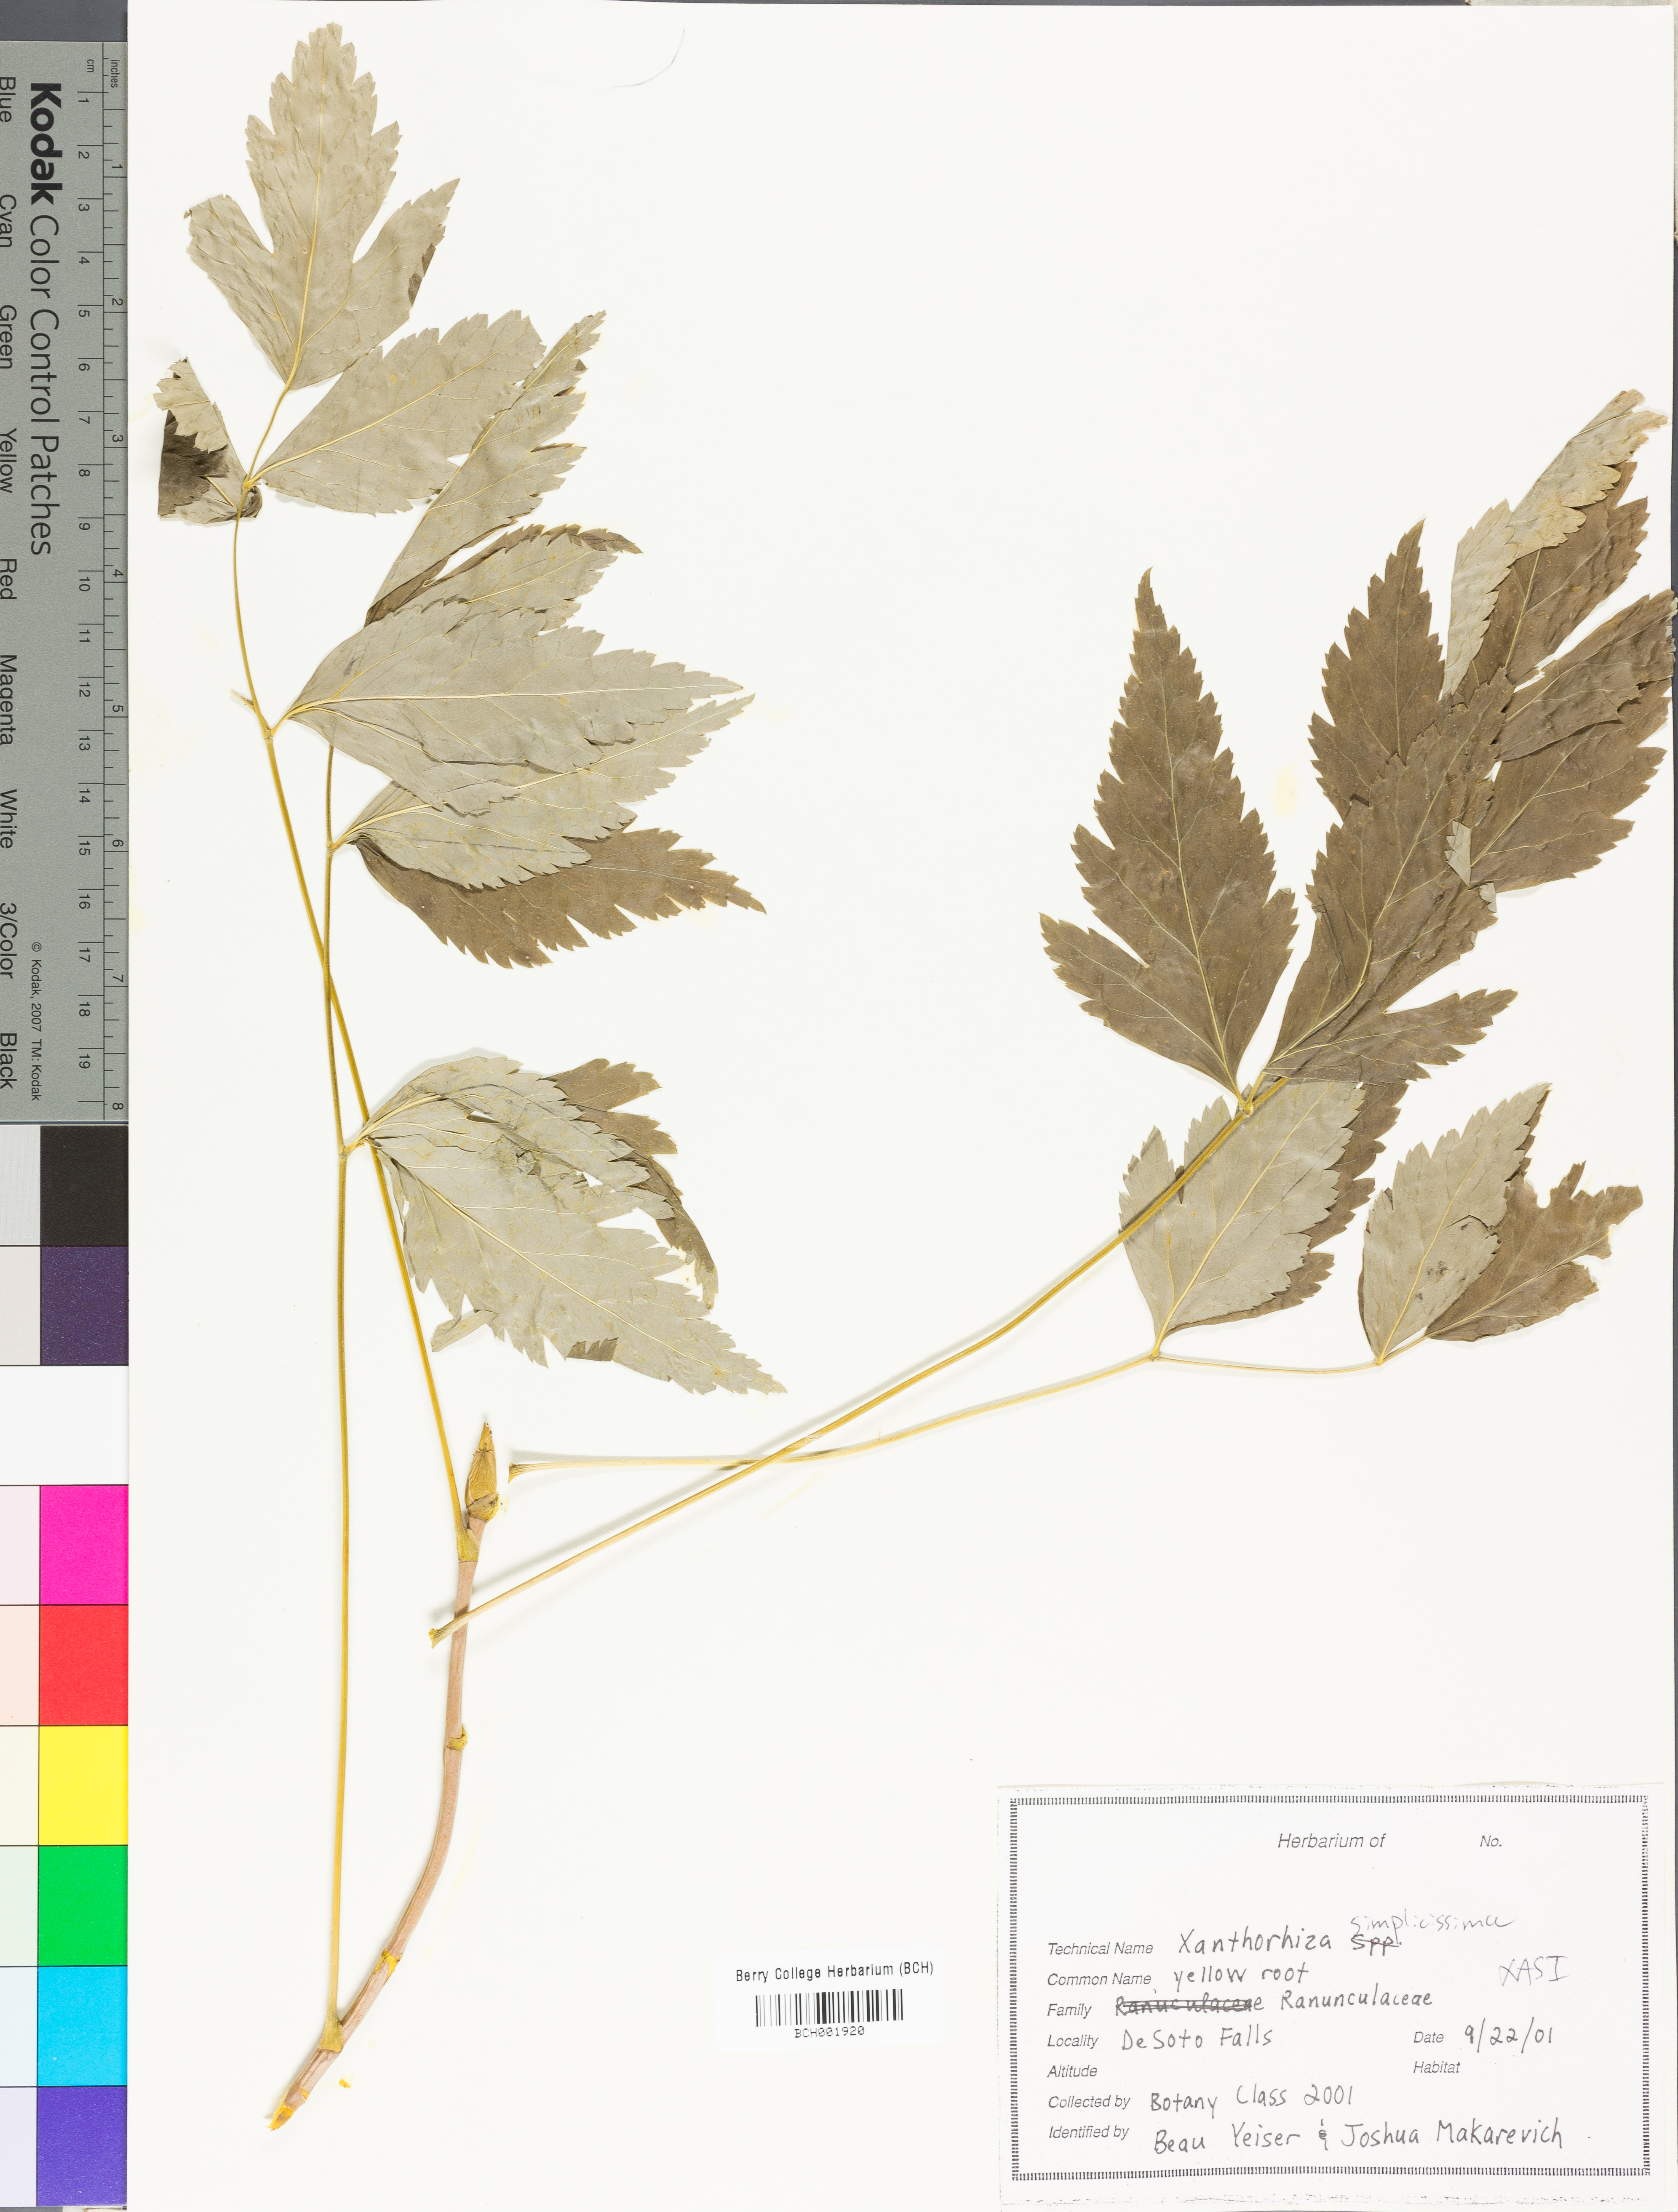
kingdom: Plantae
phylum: Tracheophyta
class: Magnoliopsida
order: Ranunculales
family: Ranunculaceae
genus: Xanthorhiza
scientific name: Xanthorhiza simplicissima
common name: Yellowroot
